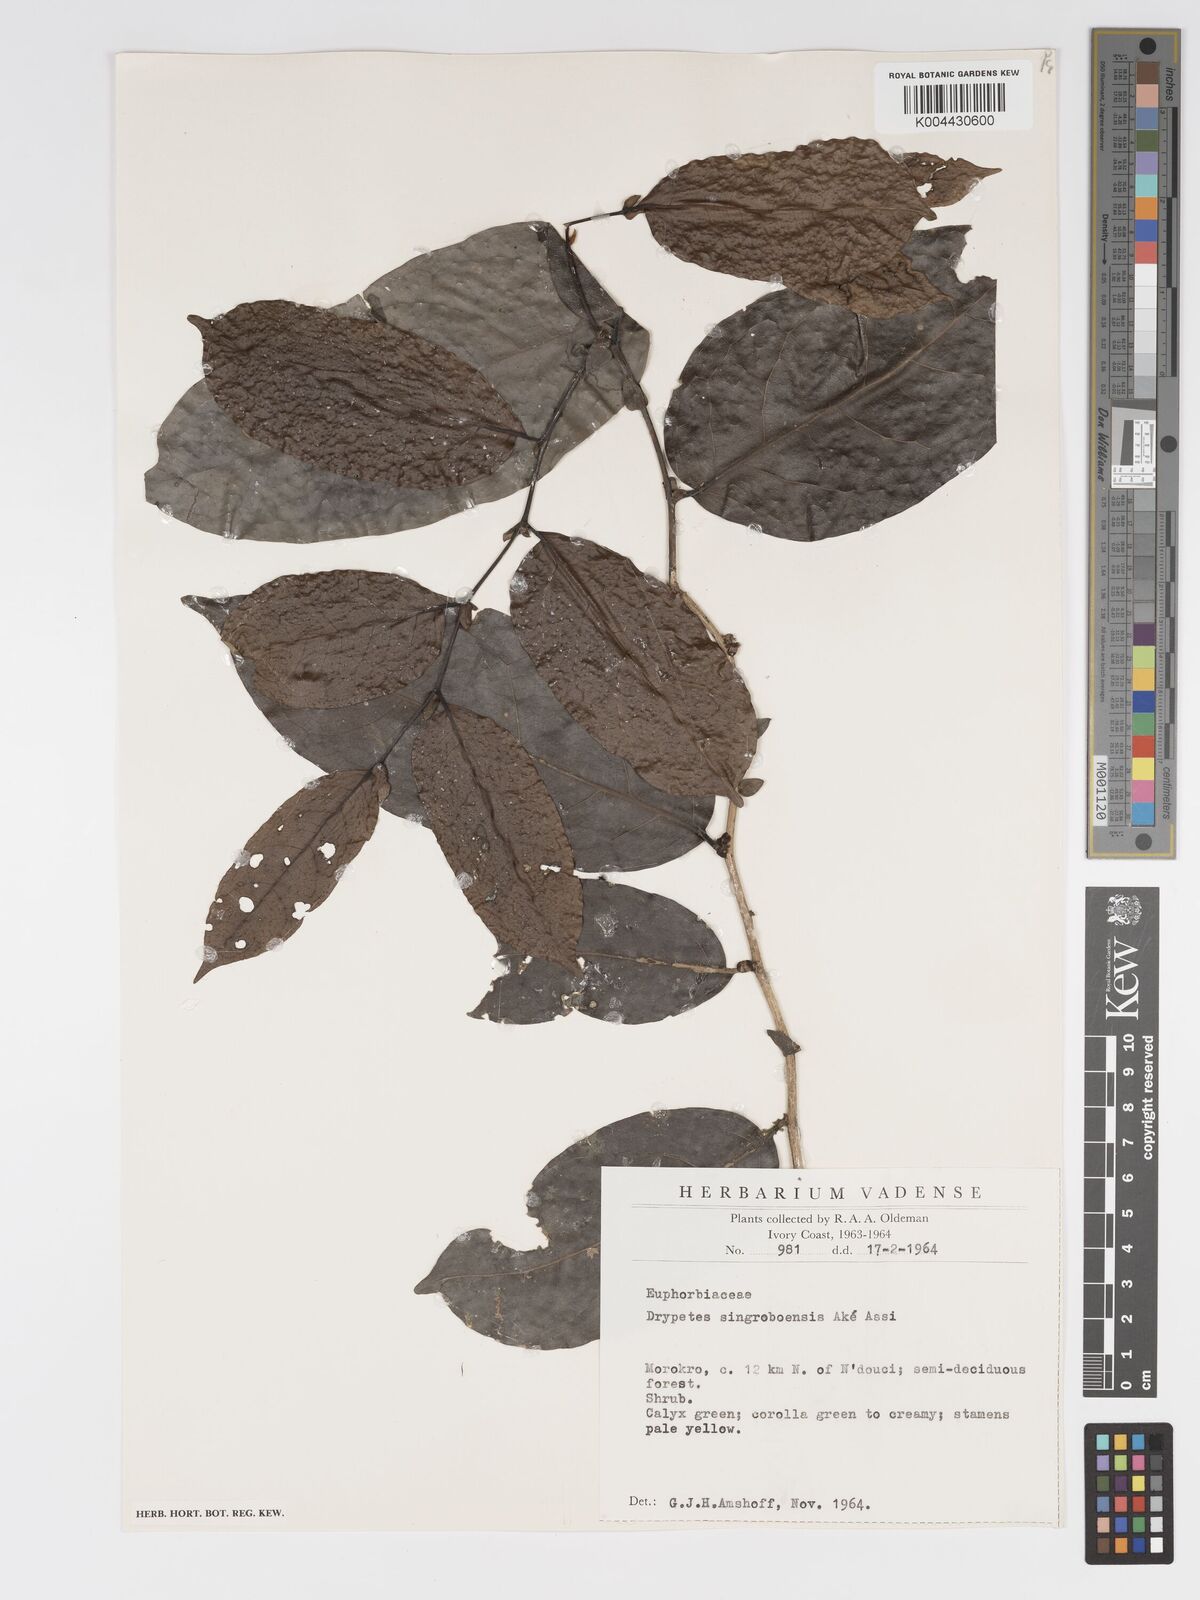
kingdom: Plantae
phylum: Tracheophyta
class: Magnoliopsida
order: Malpighiales
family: Putranjivaceae
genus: Drypetes
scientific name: Drypetes singroboensis
